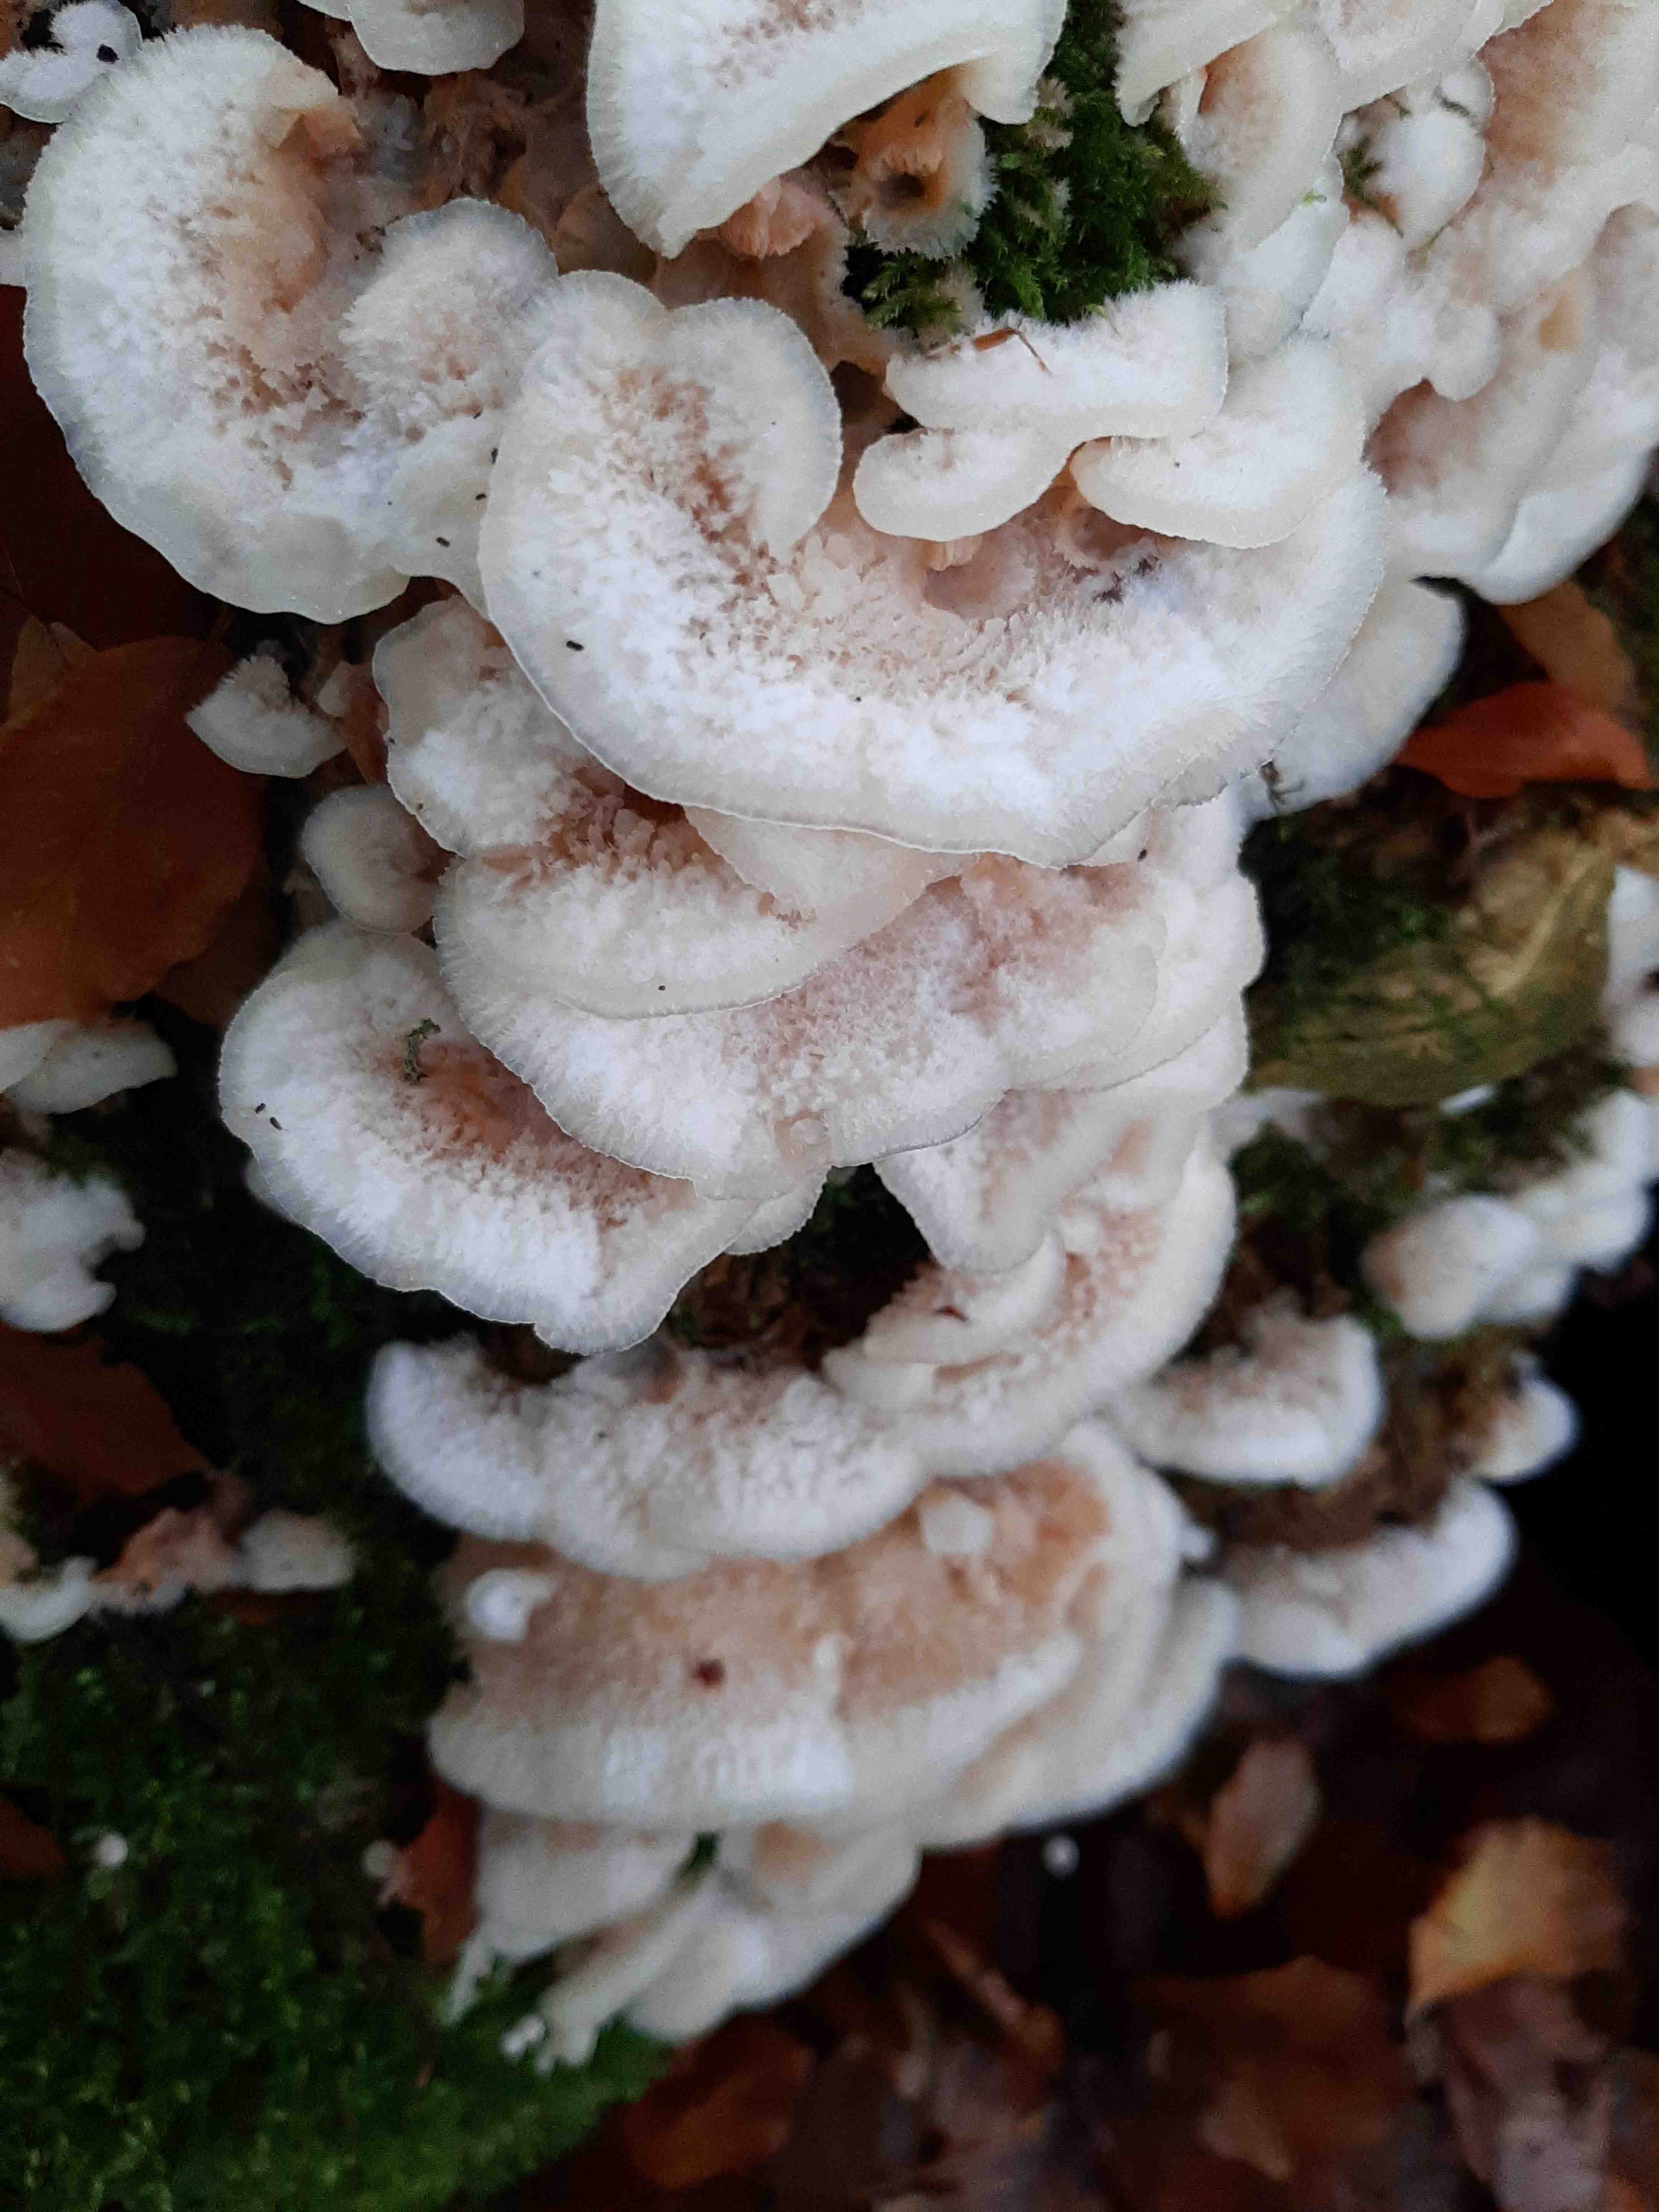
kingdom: Fungi
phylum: Basidiomycota
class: Agaricomycetes
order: Polyporales
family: Meruliaceae
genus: Phlebia
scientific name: Phlebia tremellosa
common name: bævrende åresvamp
